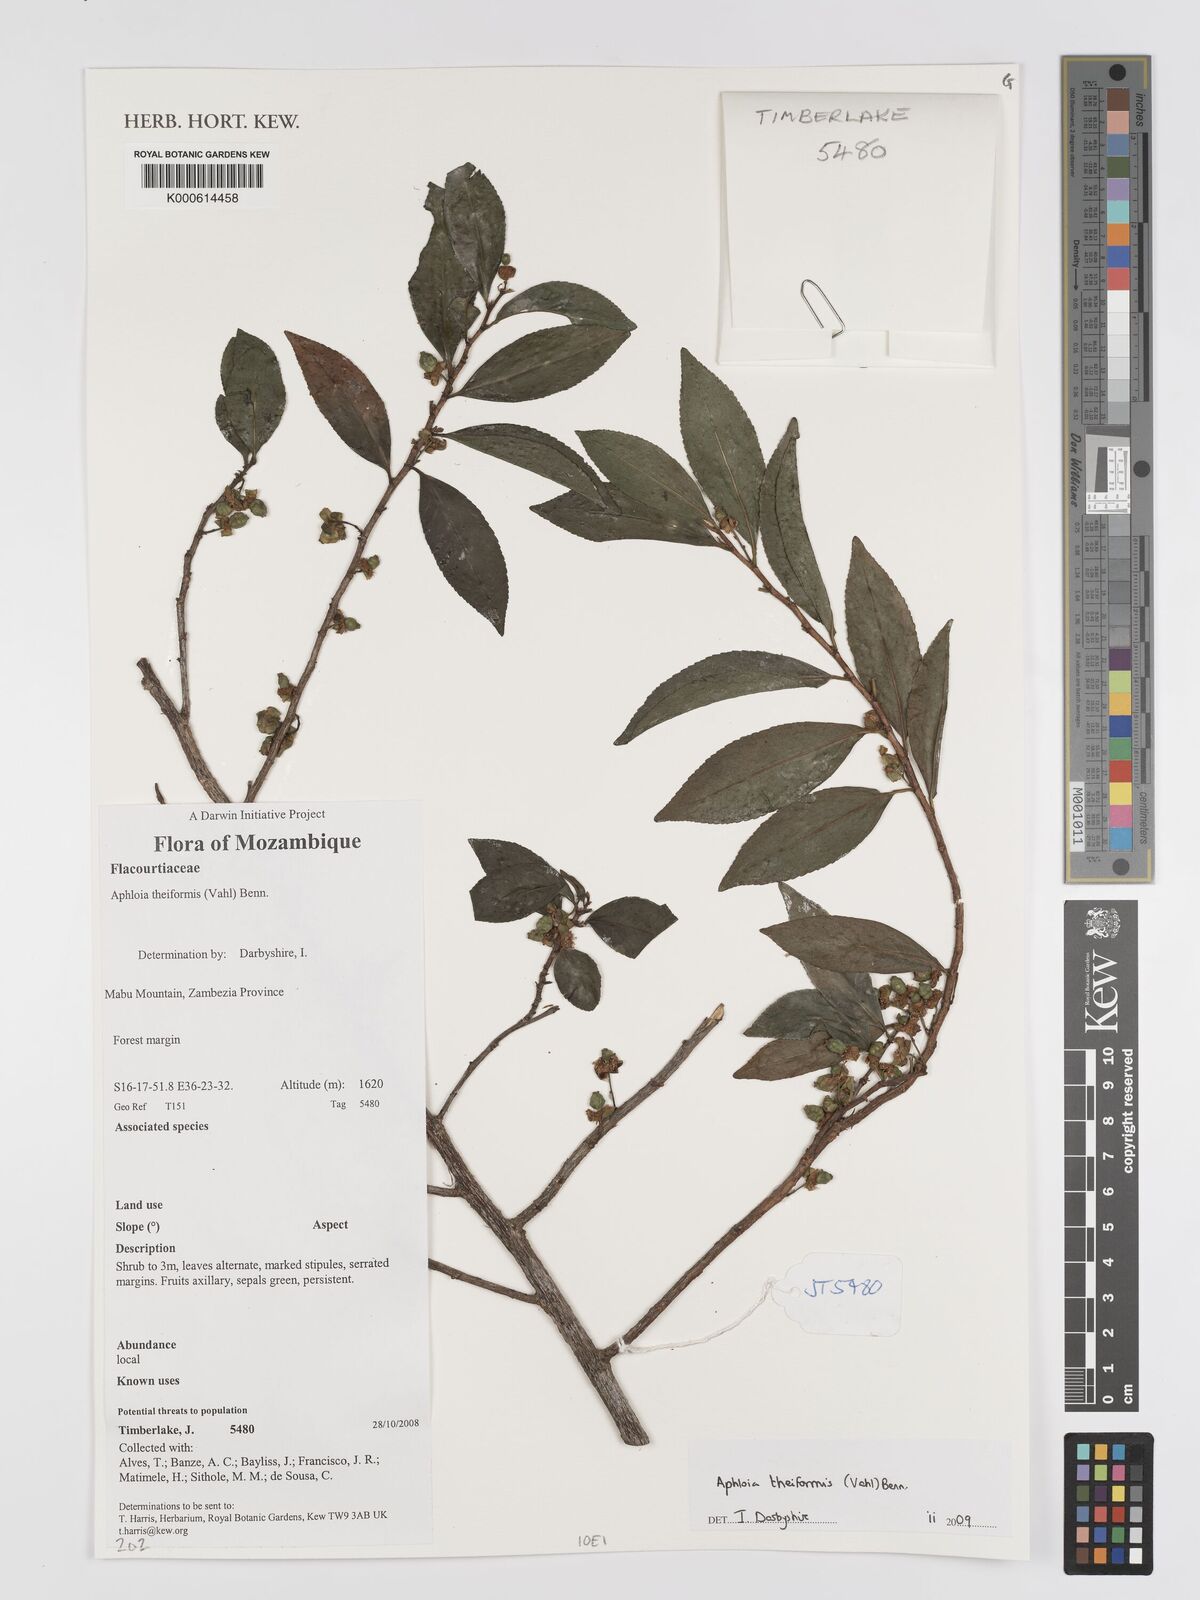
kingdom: Plantae
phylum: Tracheophyta
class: Magnoliopsida
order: Crossosomatales
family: Aphloiaceae
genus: Aphloia
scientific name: Aphloia theiformis
